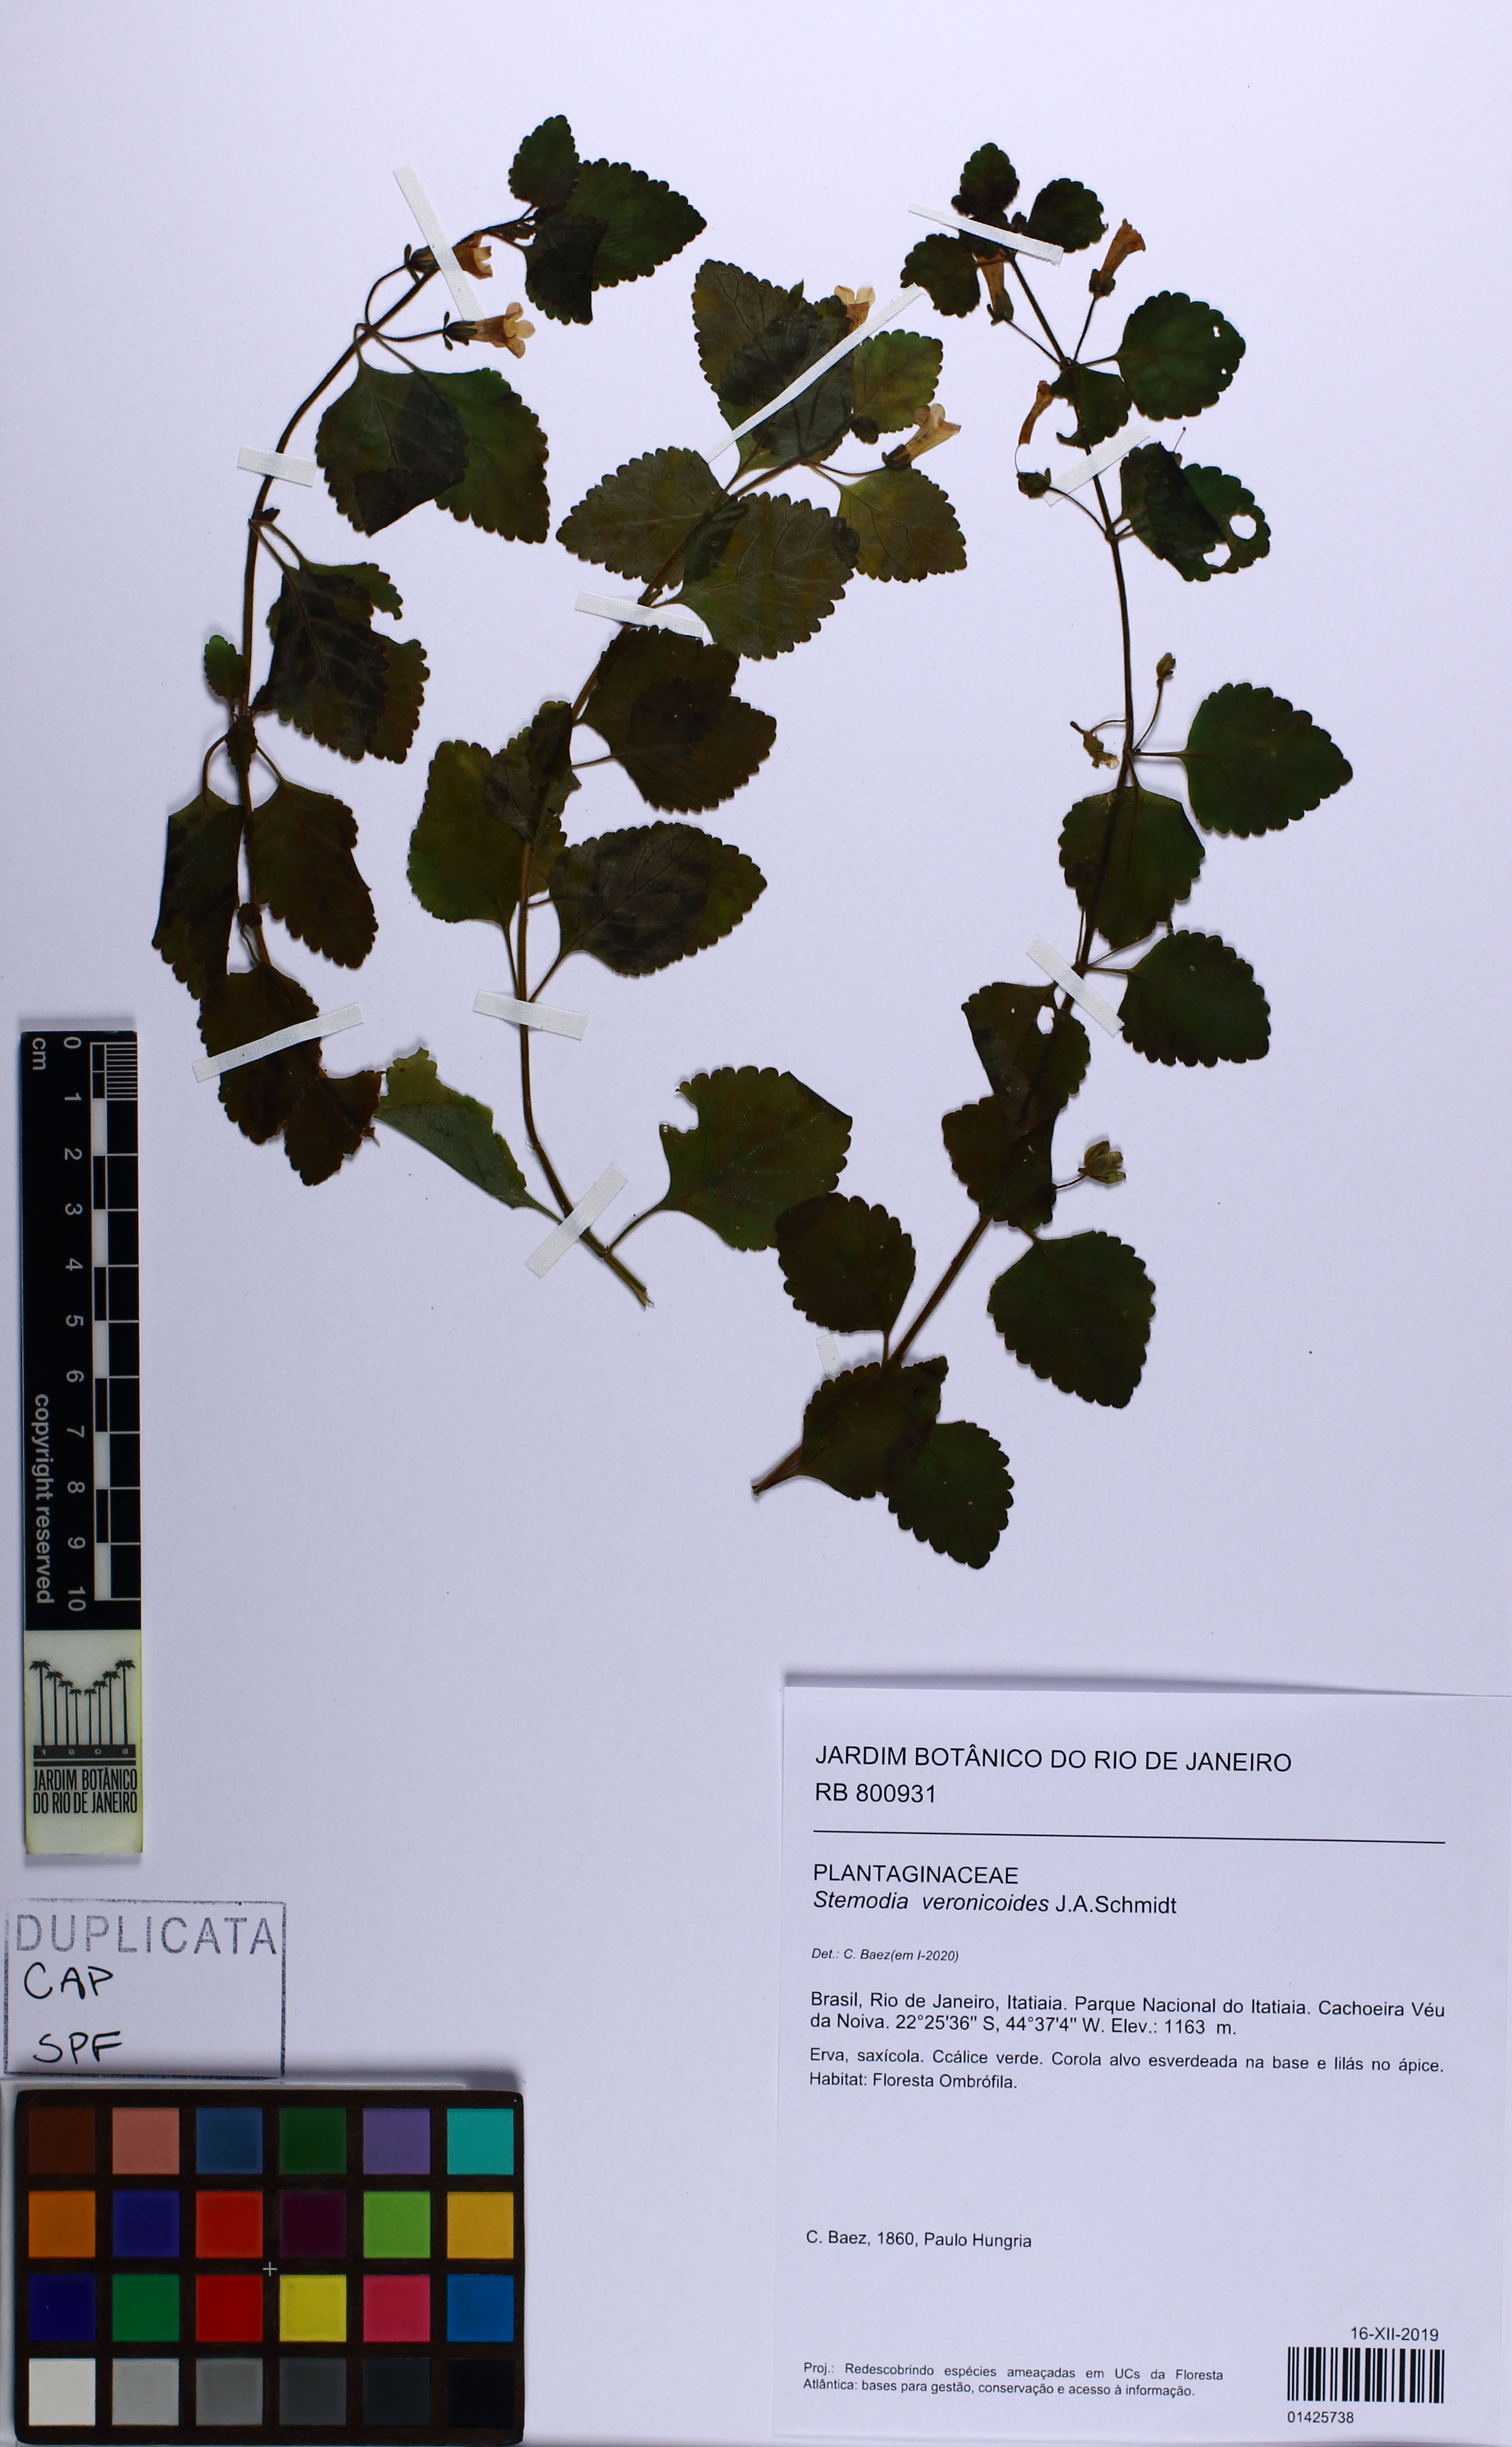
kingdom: Plantae
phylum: Tracheophyta
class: Magnoliopsida
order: Lamiales
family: Plantaginaceae
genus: Umbraria
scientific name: Umbraria veronicoides
